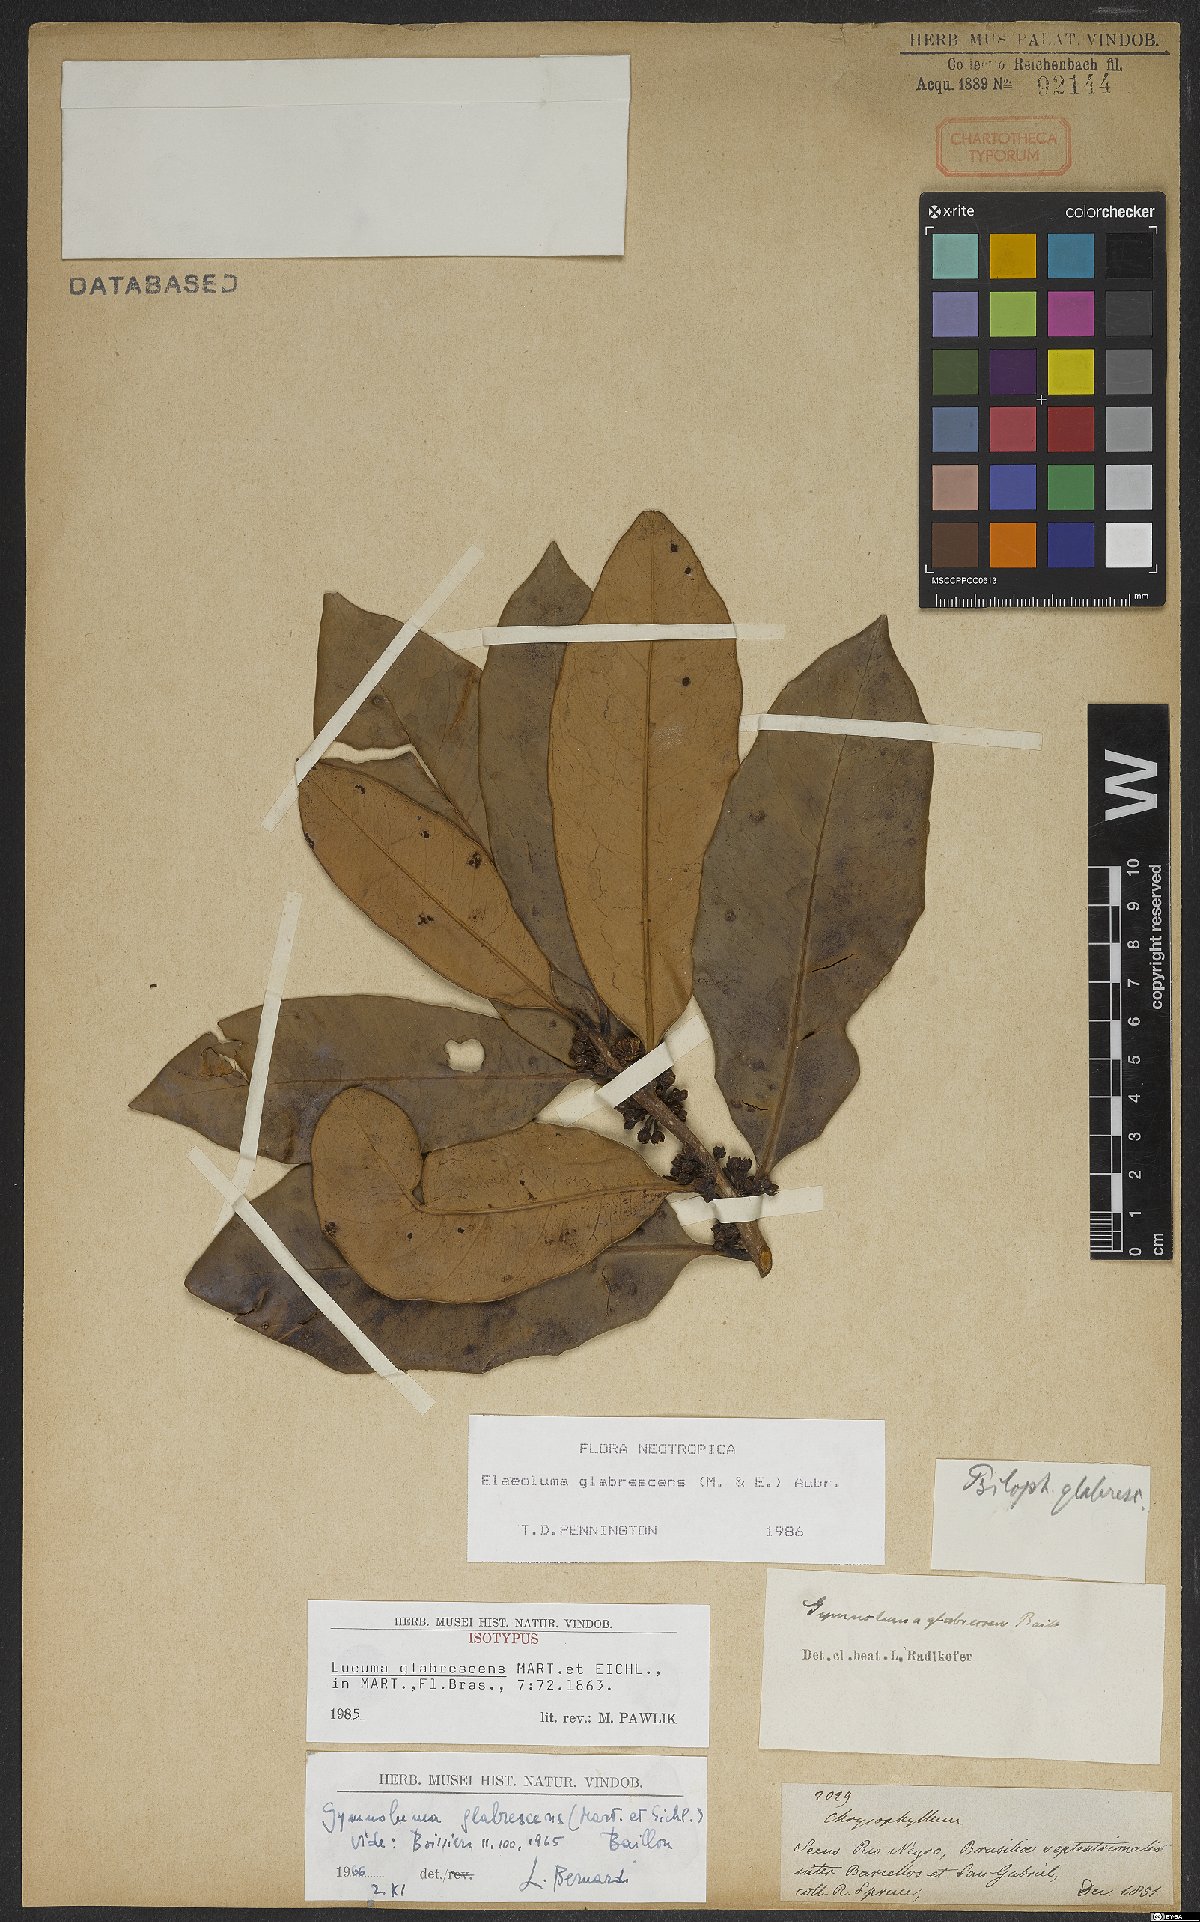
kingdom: Plantae
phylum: Tracheophyta
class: Magnoliopsida
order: Ericales
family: Sapotaceae
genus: Elaeoluma
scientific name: Elaeoluma glabrescens
